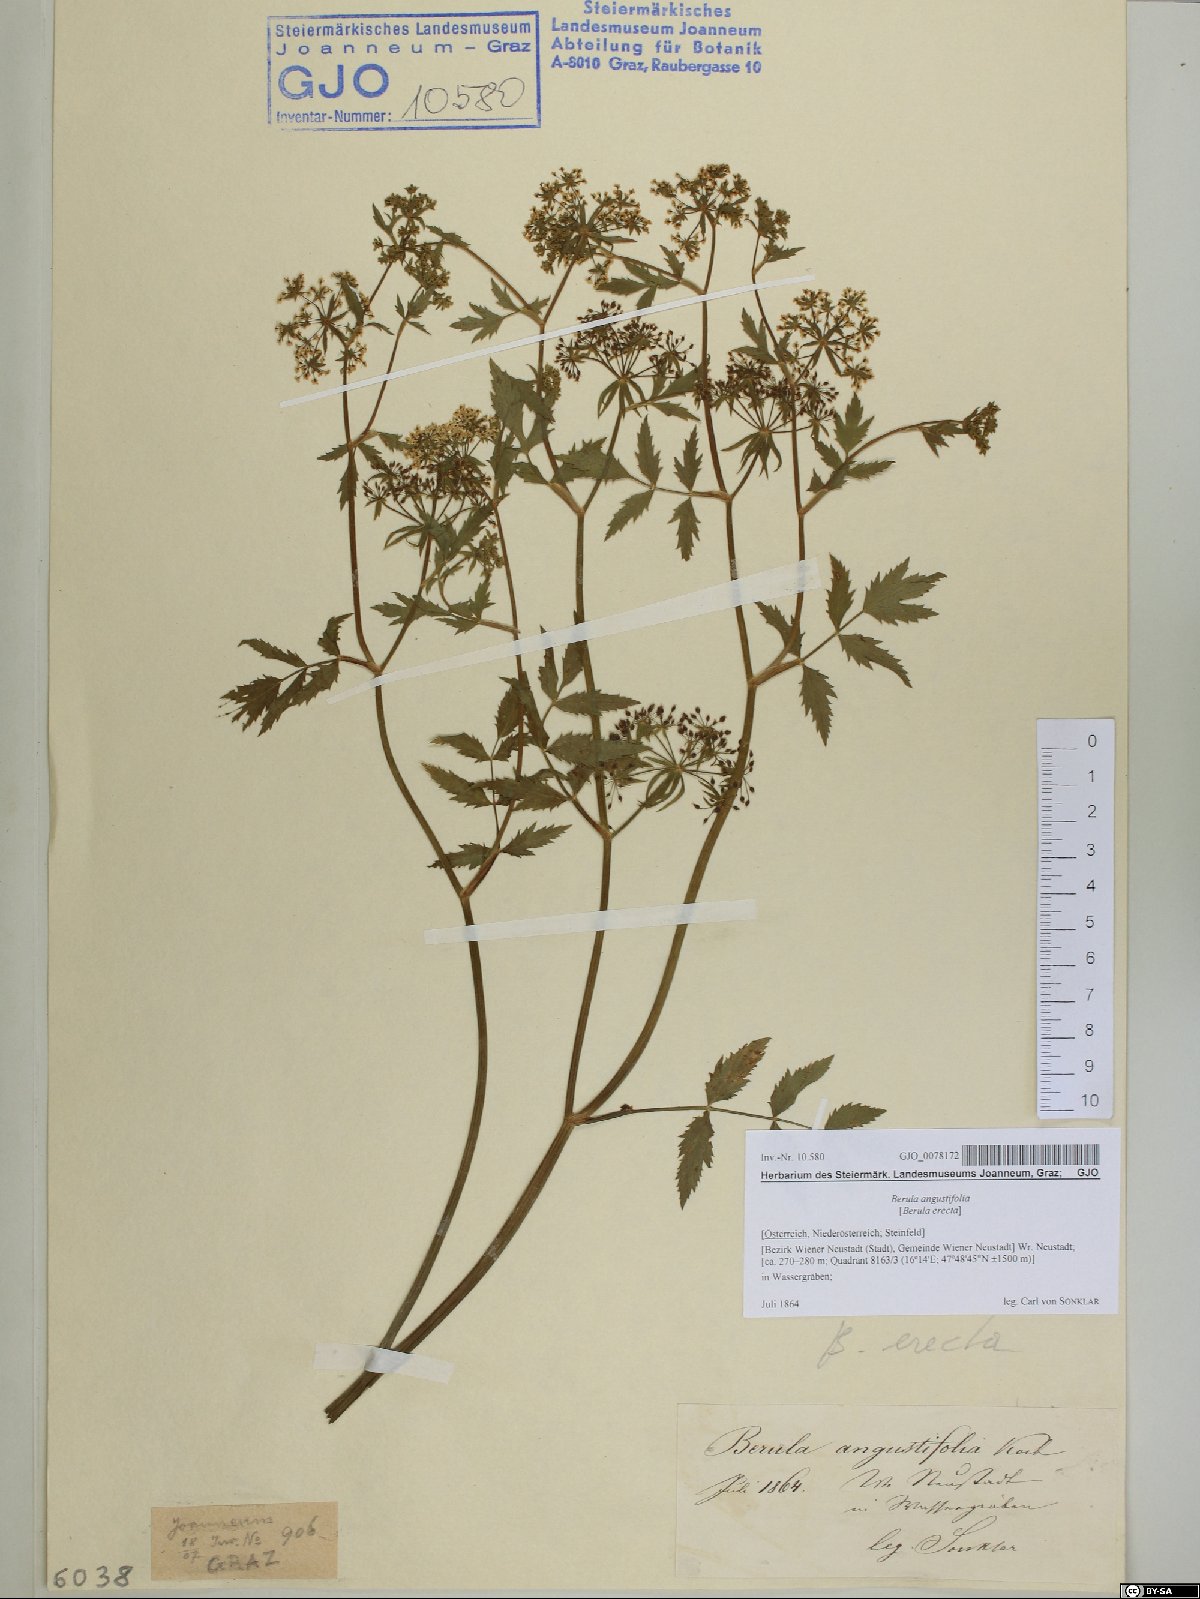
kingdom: Plantae
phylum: Tracheophyta
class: Magnoliopsida
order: Apiales
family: Apiaceae
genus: Berula
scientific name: Berula erecta
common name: Lesser water-parsnip
